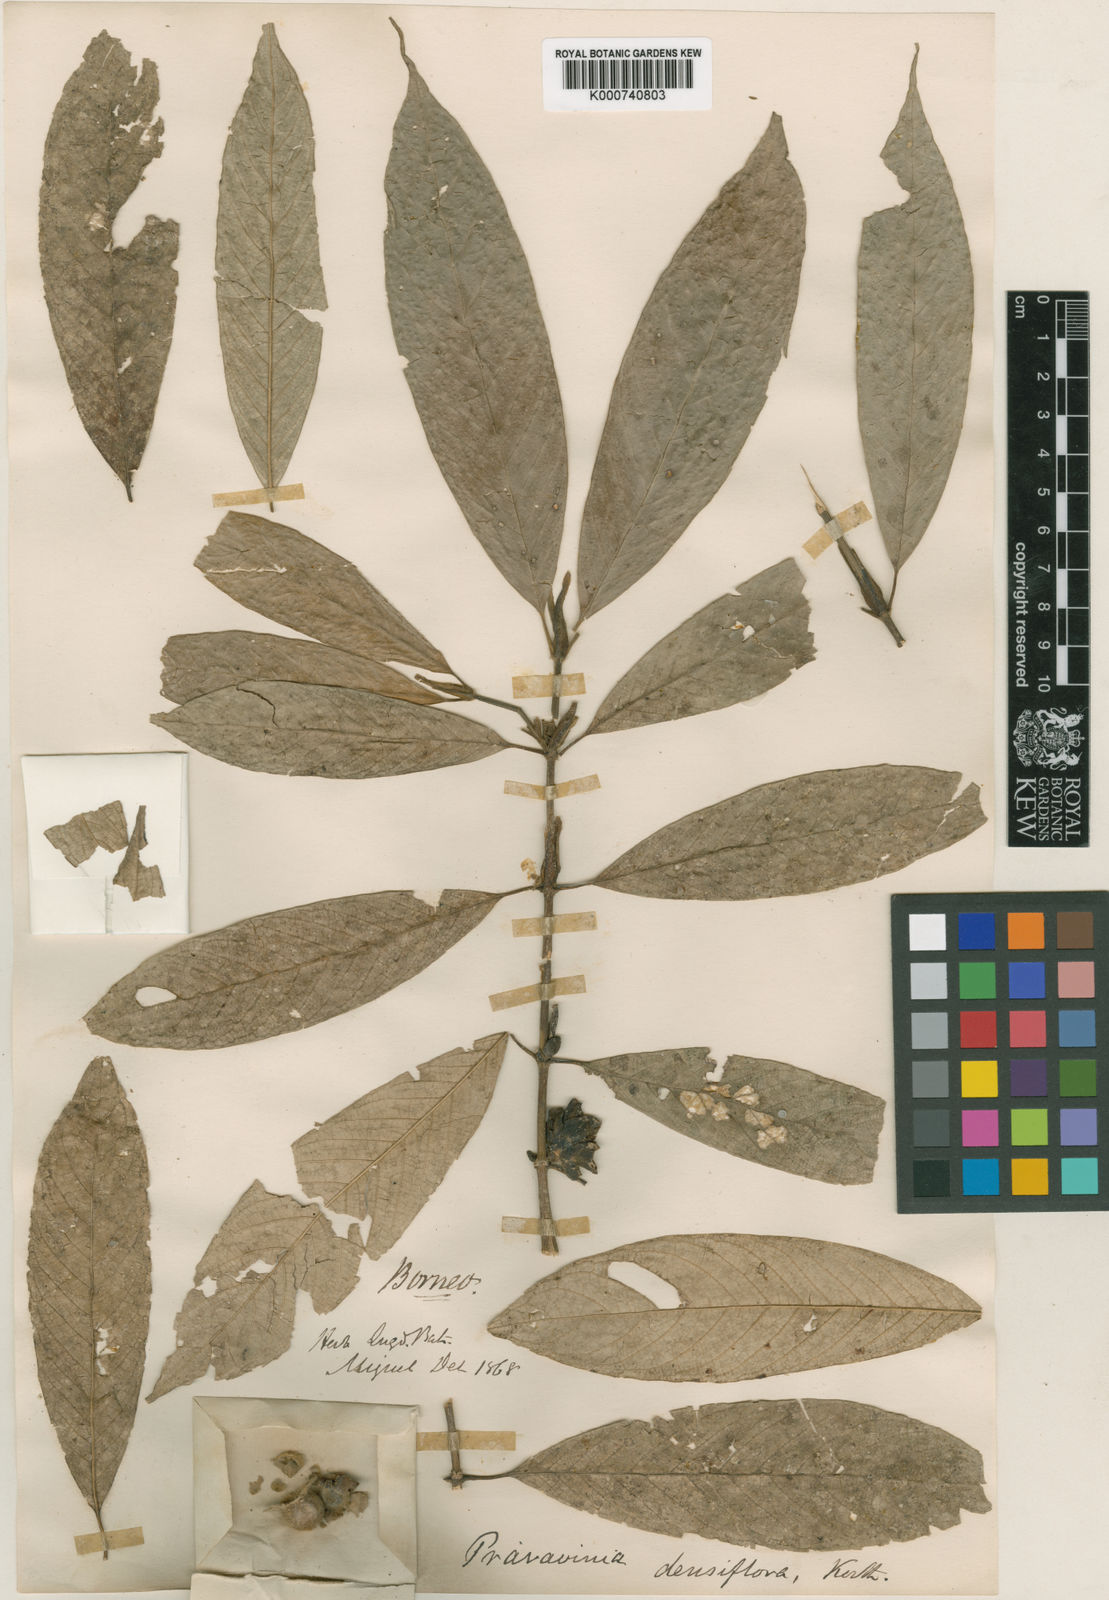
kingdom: Plantae
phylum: Tracheophyta
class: Magnoliopsida
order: Gentianales
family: Rubiaceae
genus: Praravinia
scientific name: Praravinia densiflora
